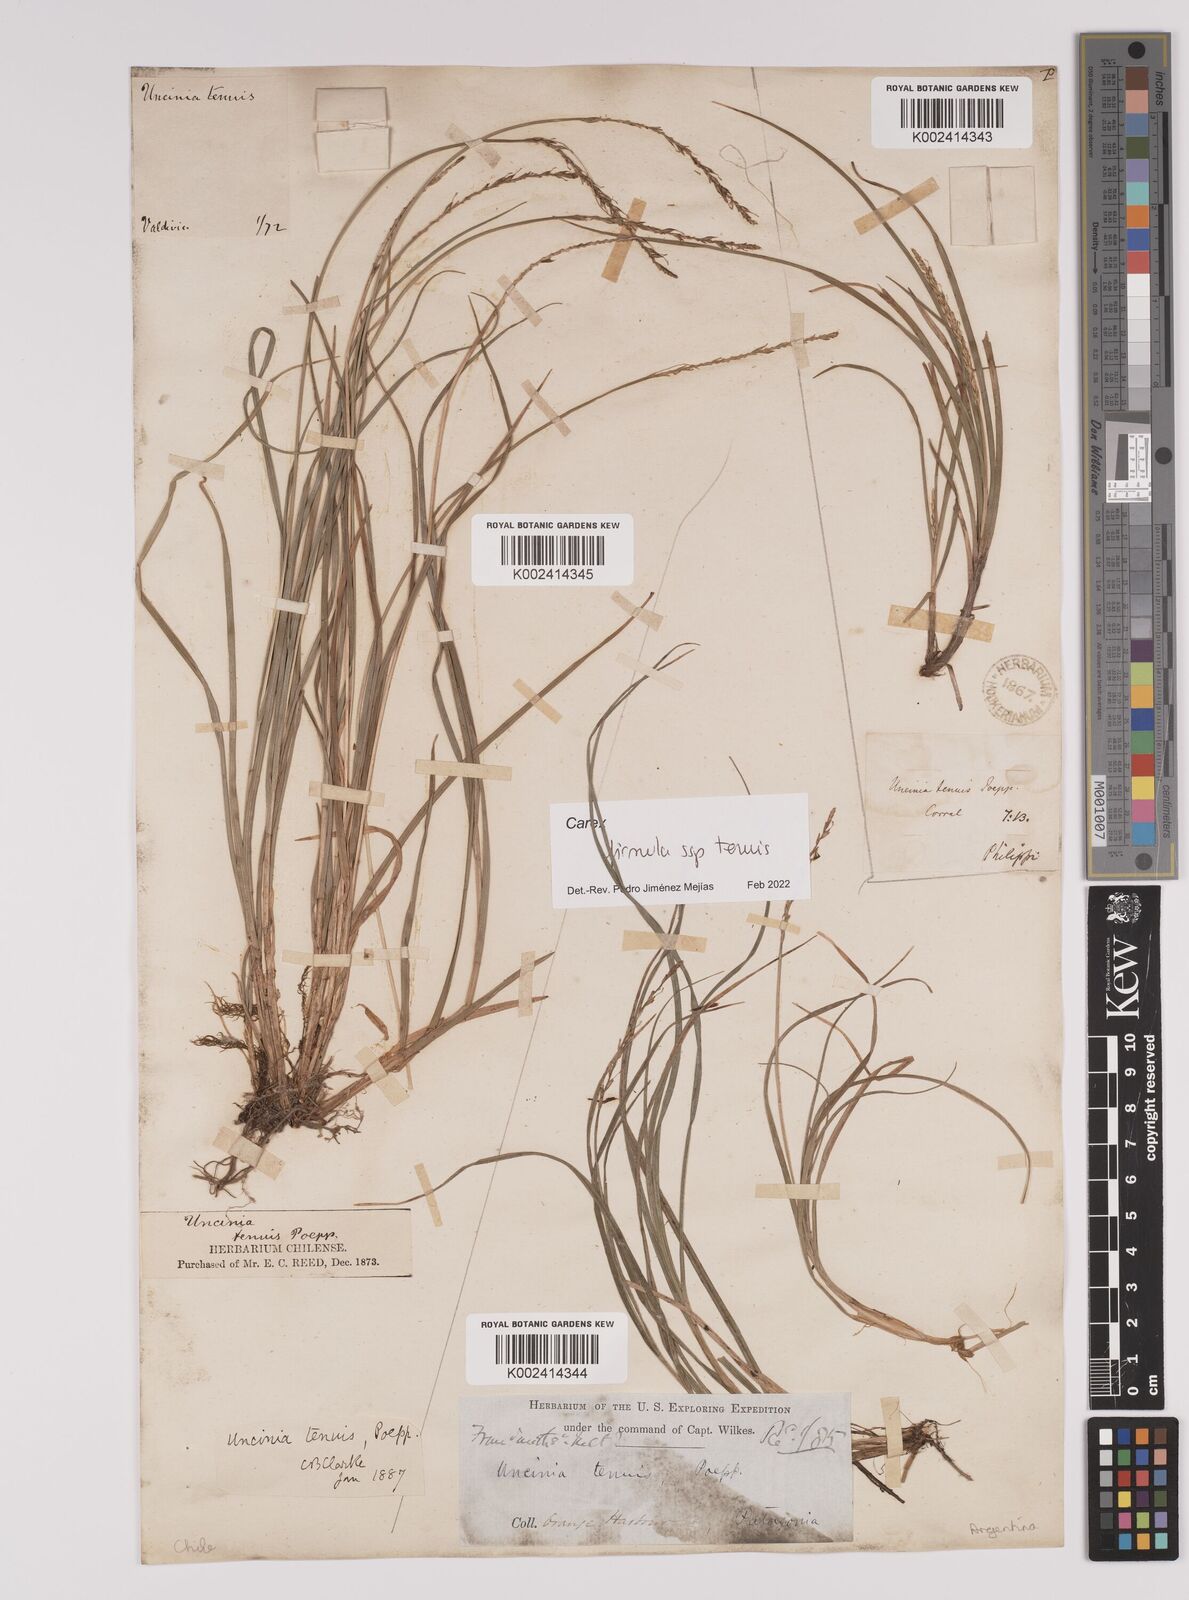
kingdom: Plantae
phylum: Tracheophyta
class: Liliopsida
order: Poales
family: Cyperaceae
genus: Carex
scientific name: Carex firmula
